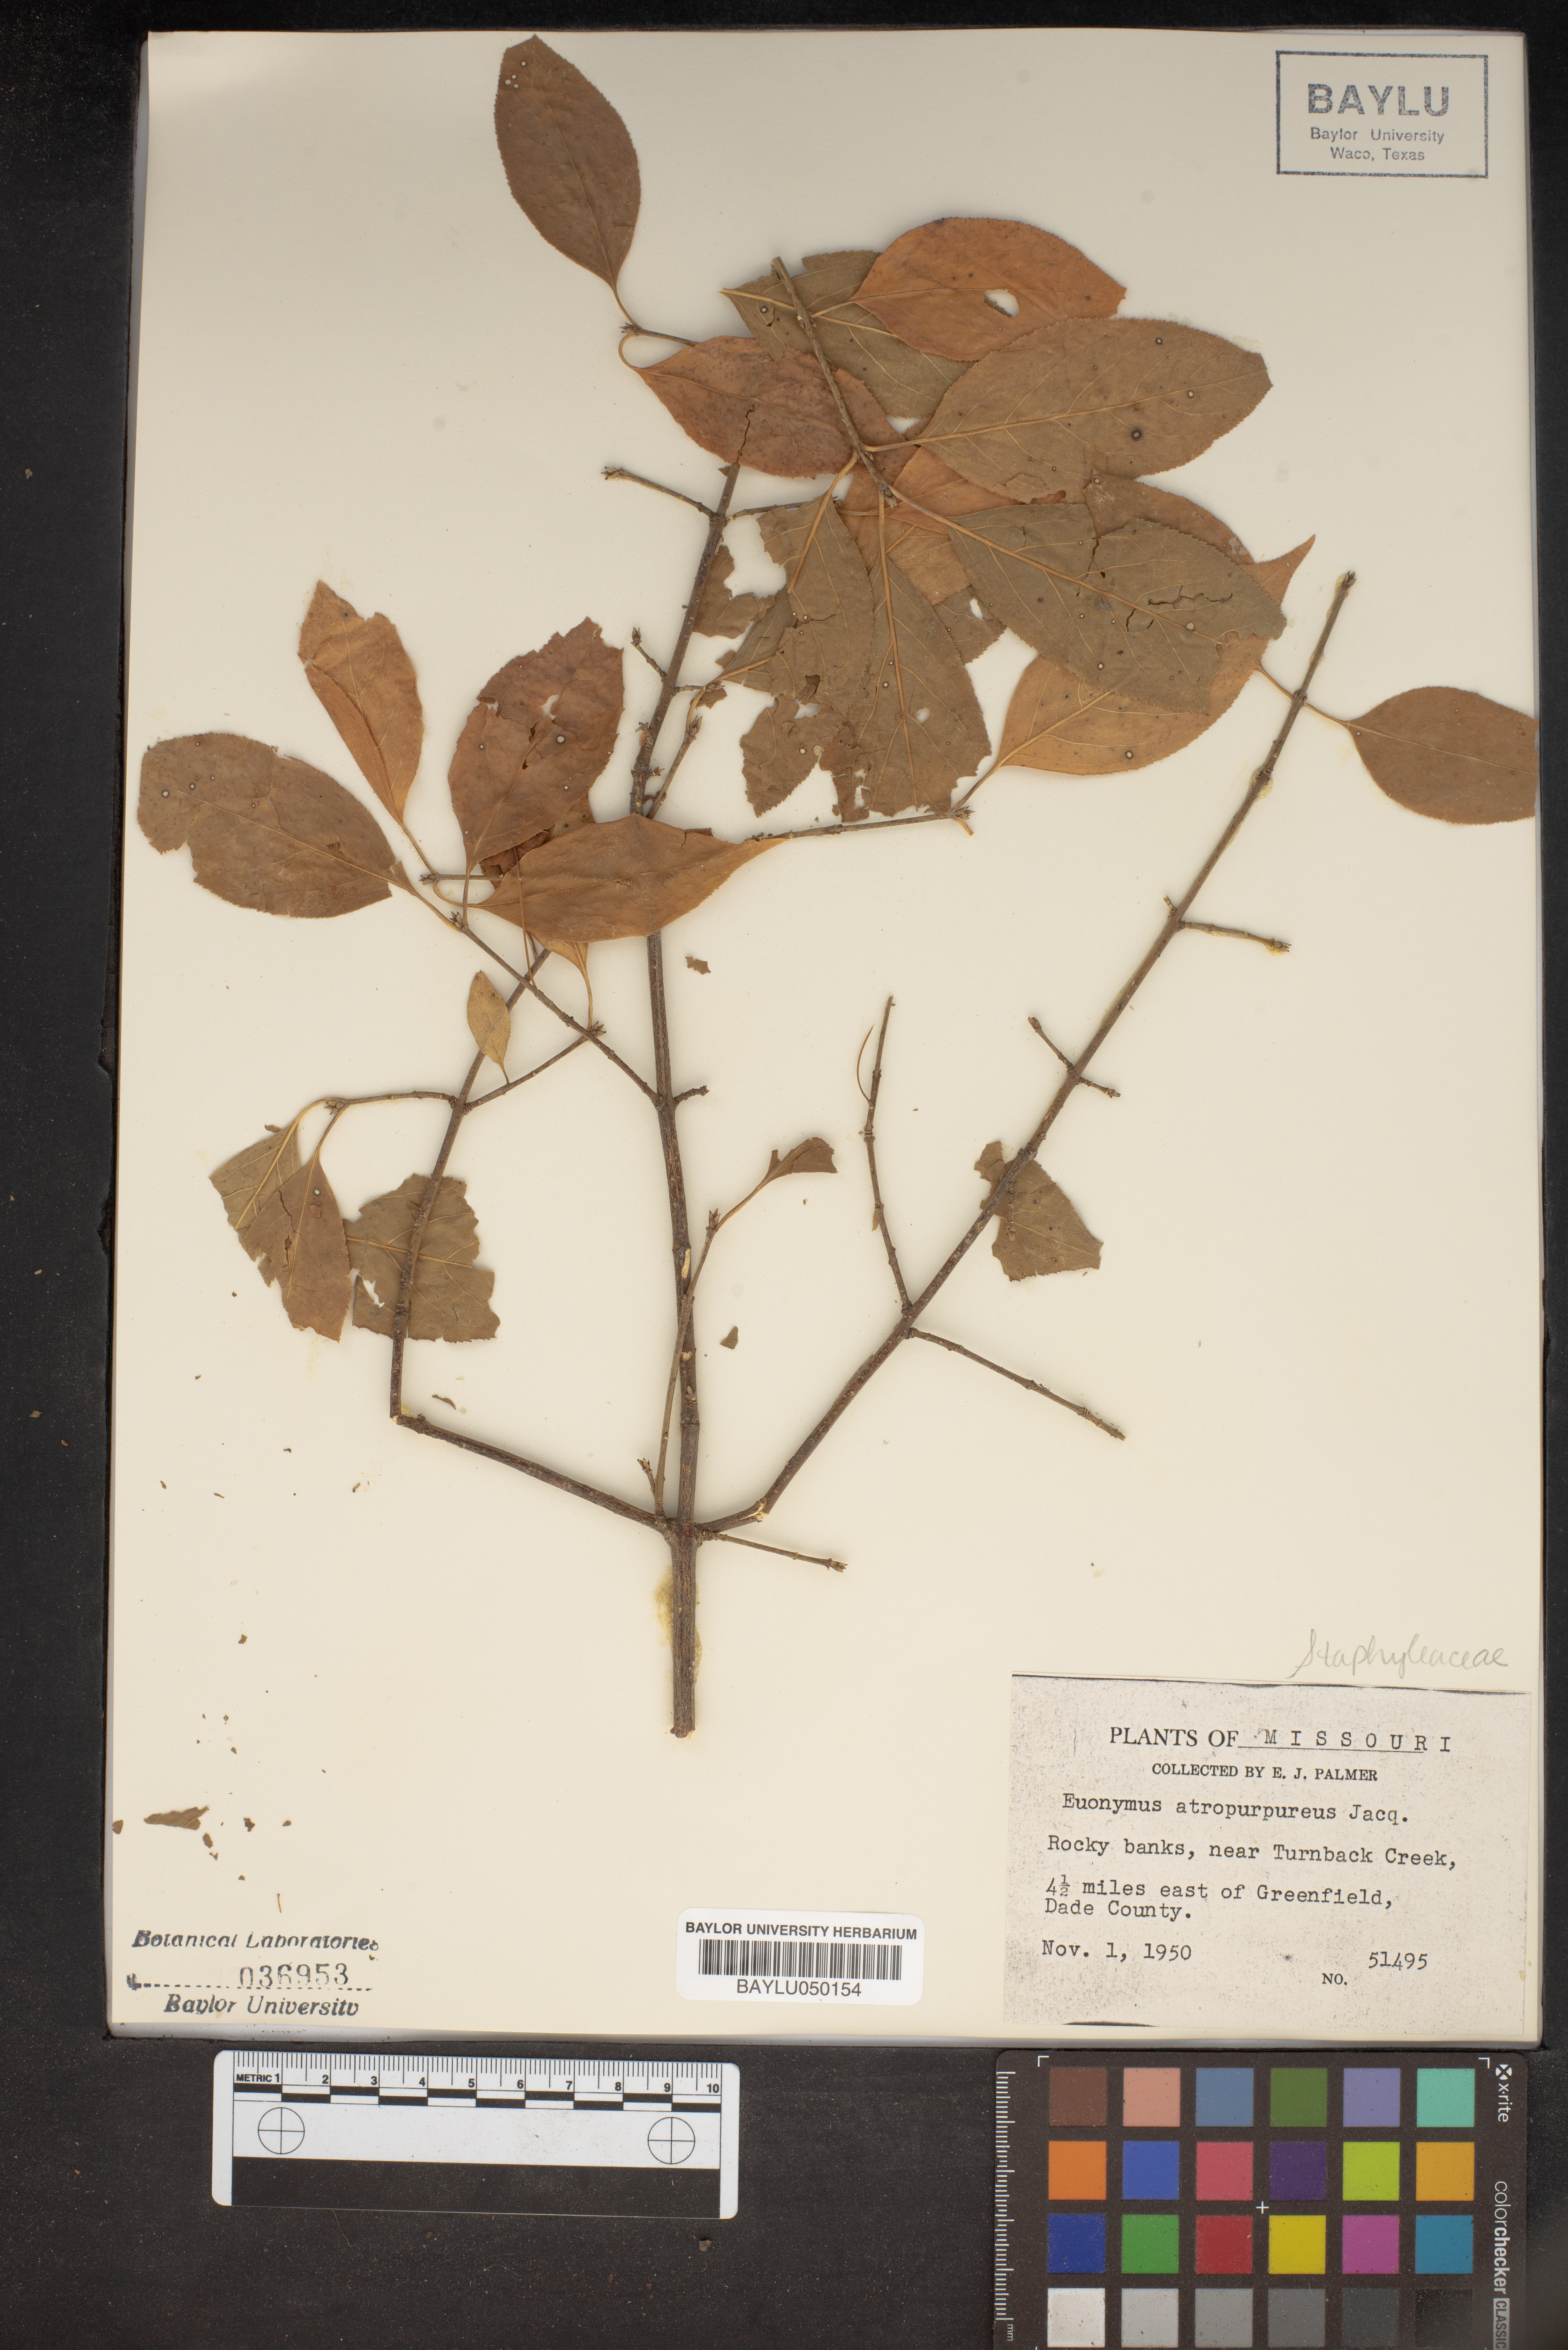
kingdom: Plantae
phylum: Tracheophyta
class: Magnoliopsida
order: Celastrales
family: Celastraceae
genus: Euonymus
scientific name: Euonymus atropurpureus
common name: Eastern wahoo
